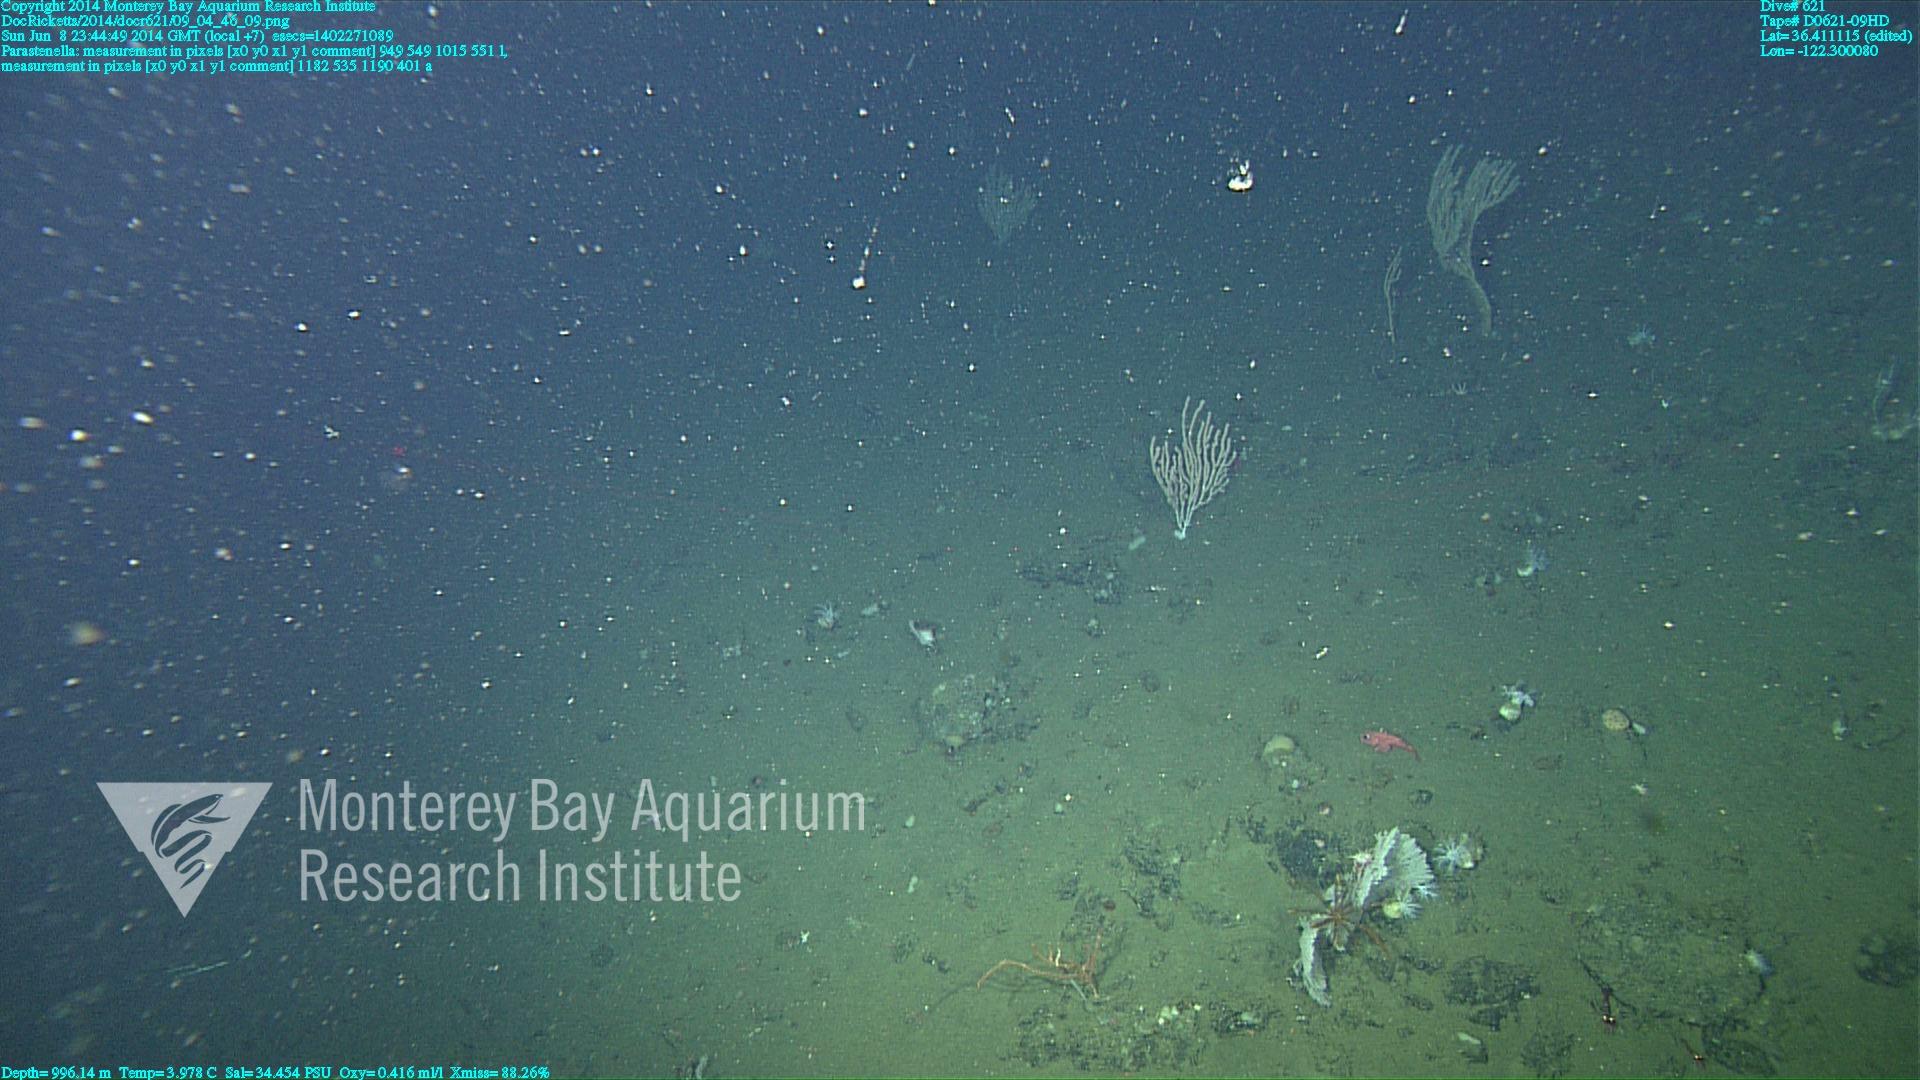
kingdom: Animalia
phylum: Cnidaria
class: Anthozoa
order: Scleralcyonacea
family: Primnoidae
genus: Parastenella
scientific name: Parastenella
